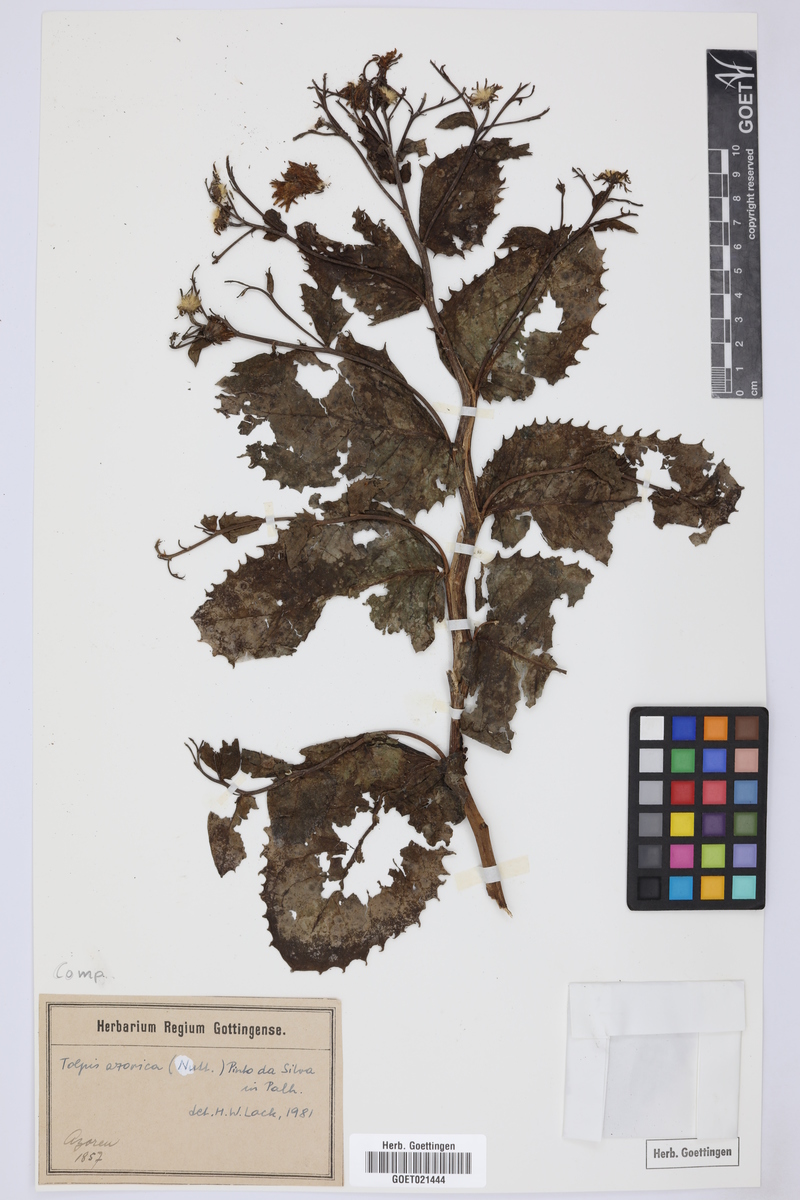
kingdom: Plantae
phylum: Tracheophyta
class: Magnoliopsida
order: Asterales
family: Asteraceae
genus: Tolpis
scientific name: Tolpis azorica
